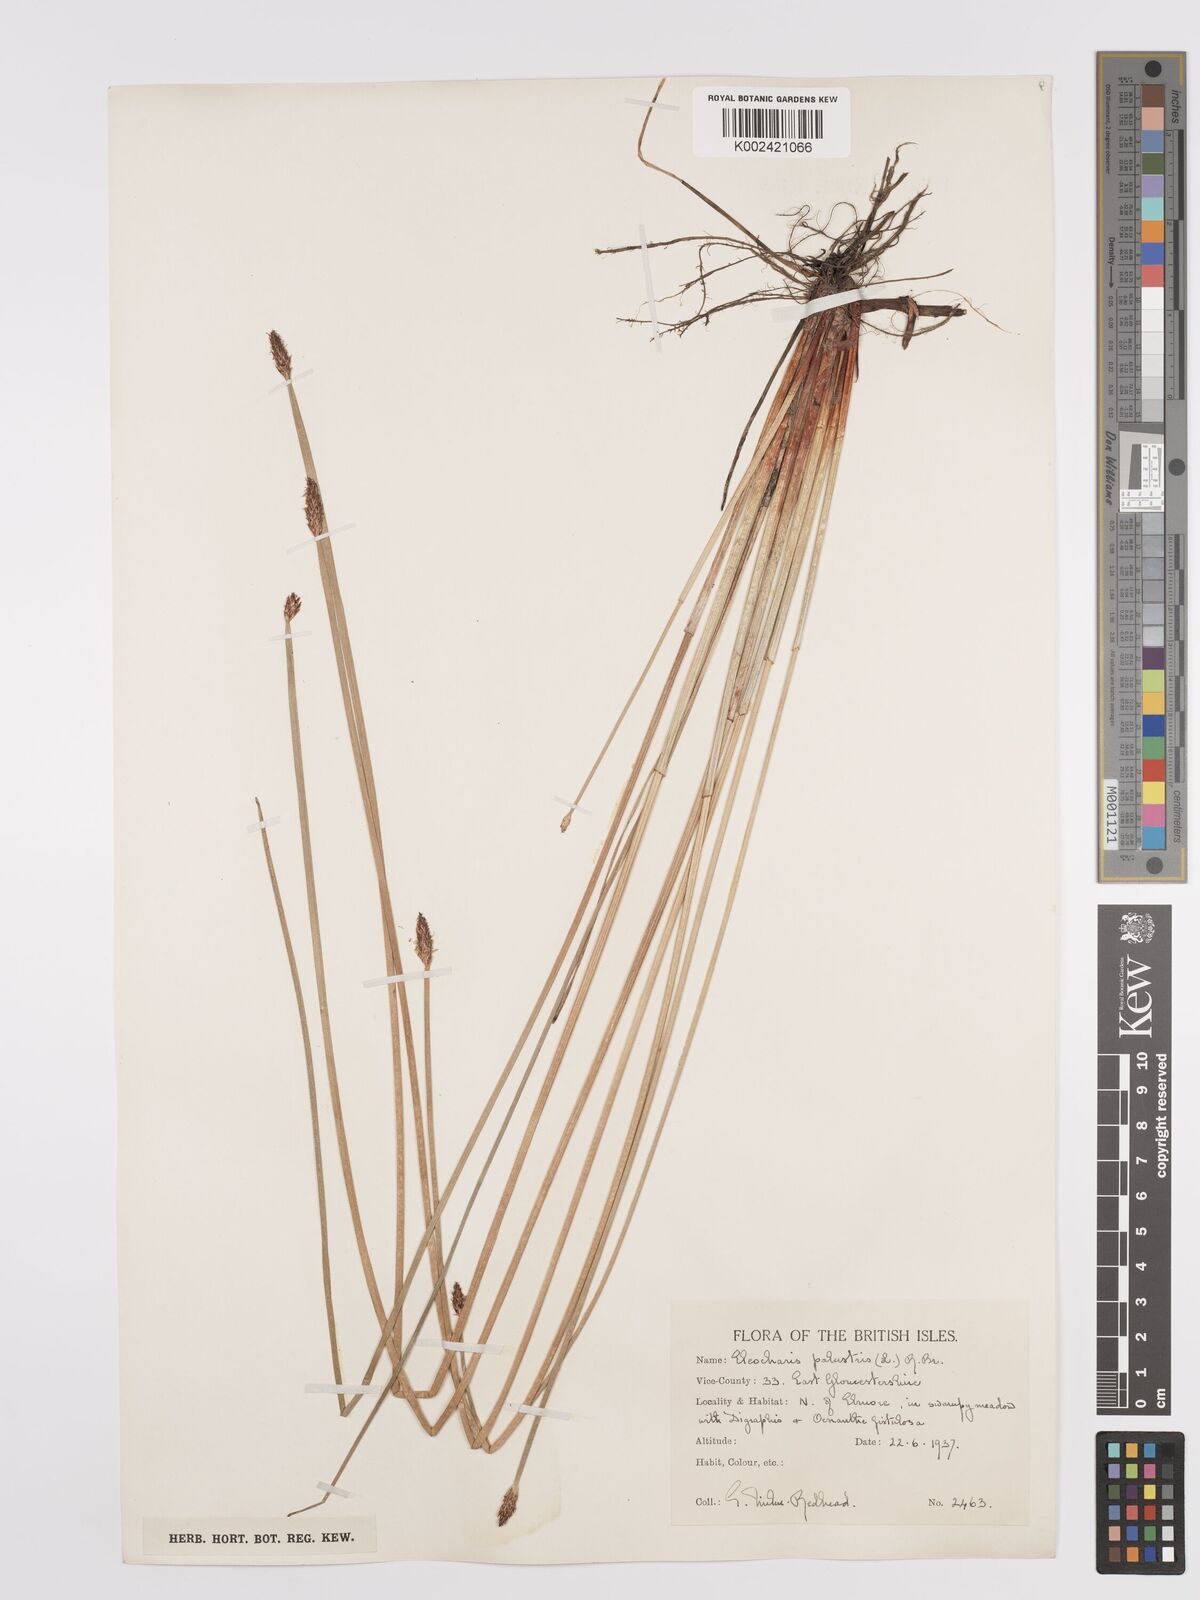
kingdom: Plantae
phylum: Tracheophyta
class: Liliopsida
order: Poales
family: Cyperaceae
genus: Eleocharis
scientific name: Eleocharis palustris
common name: Common spike-rush
